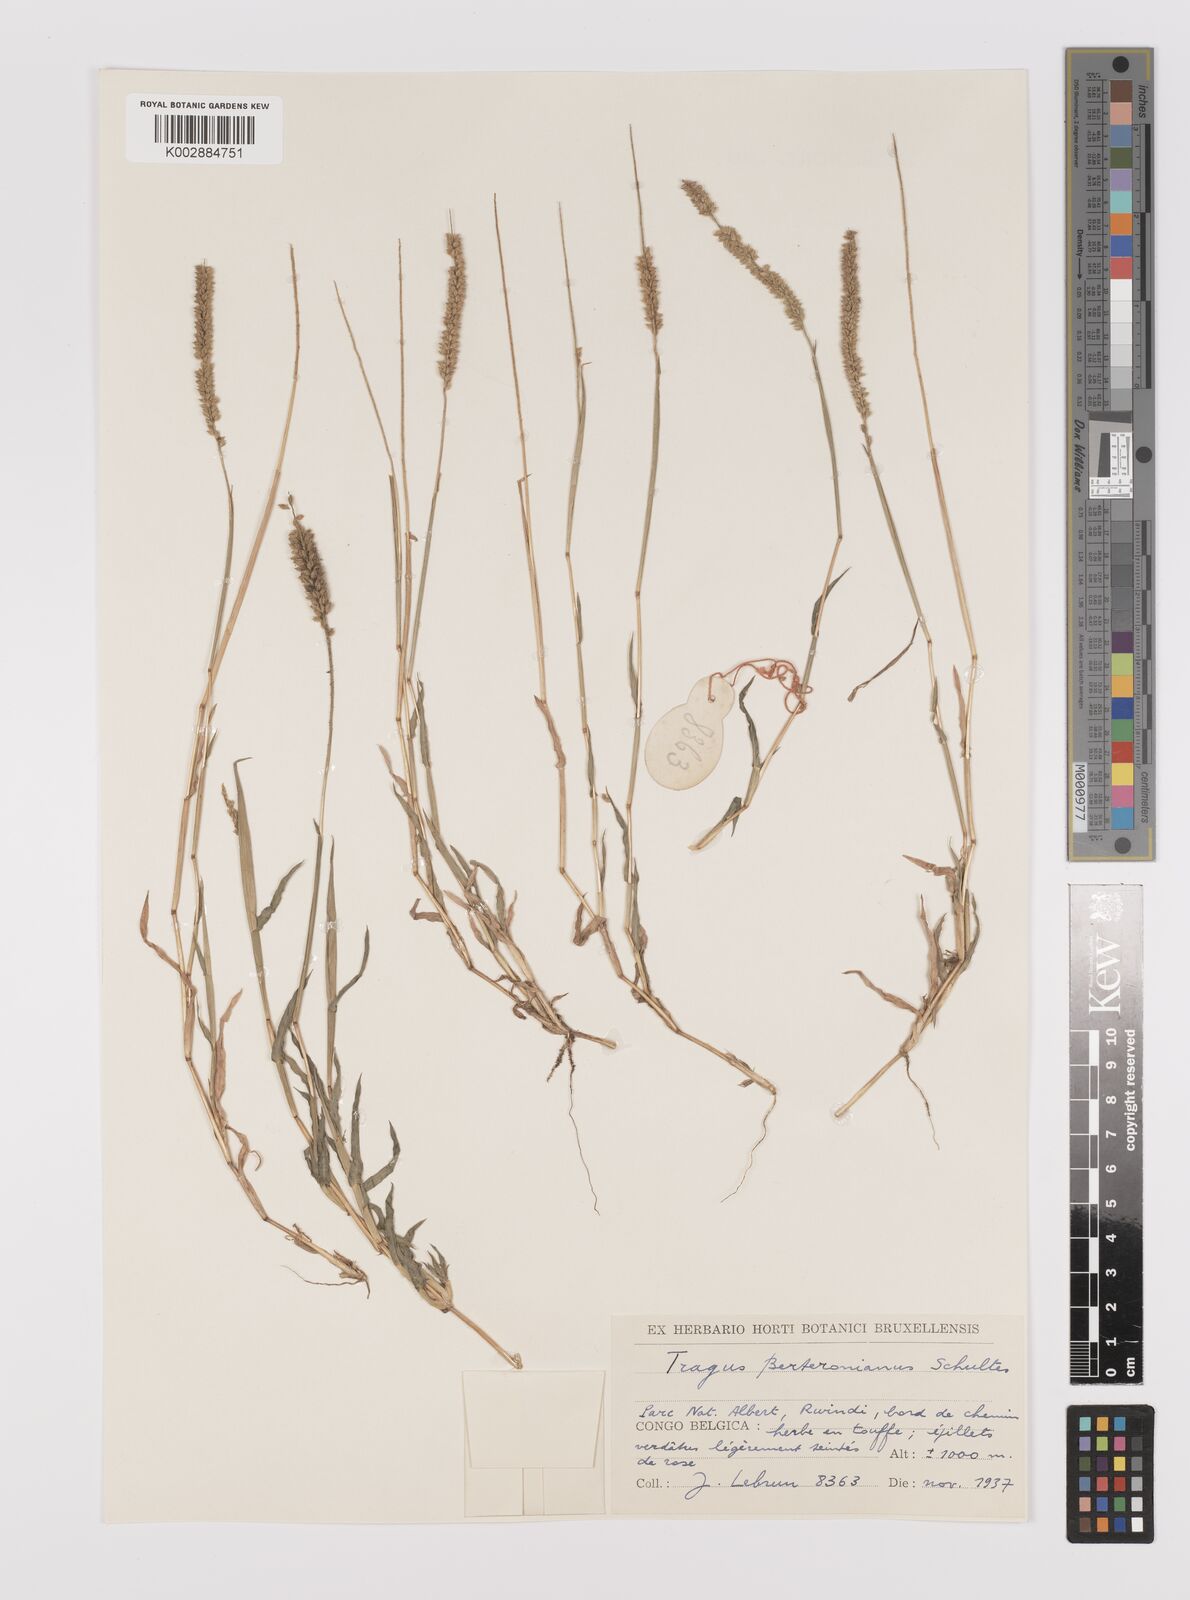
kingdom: Plantae
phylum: Tracheophyta
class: Liliopsida
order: Poales
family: Poaceae
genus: Tragus
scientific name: Tragus berteronianus
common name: African bur-grass
